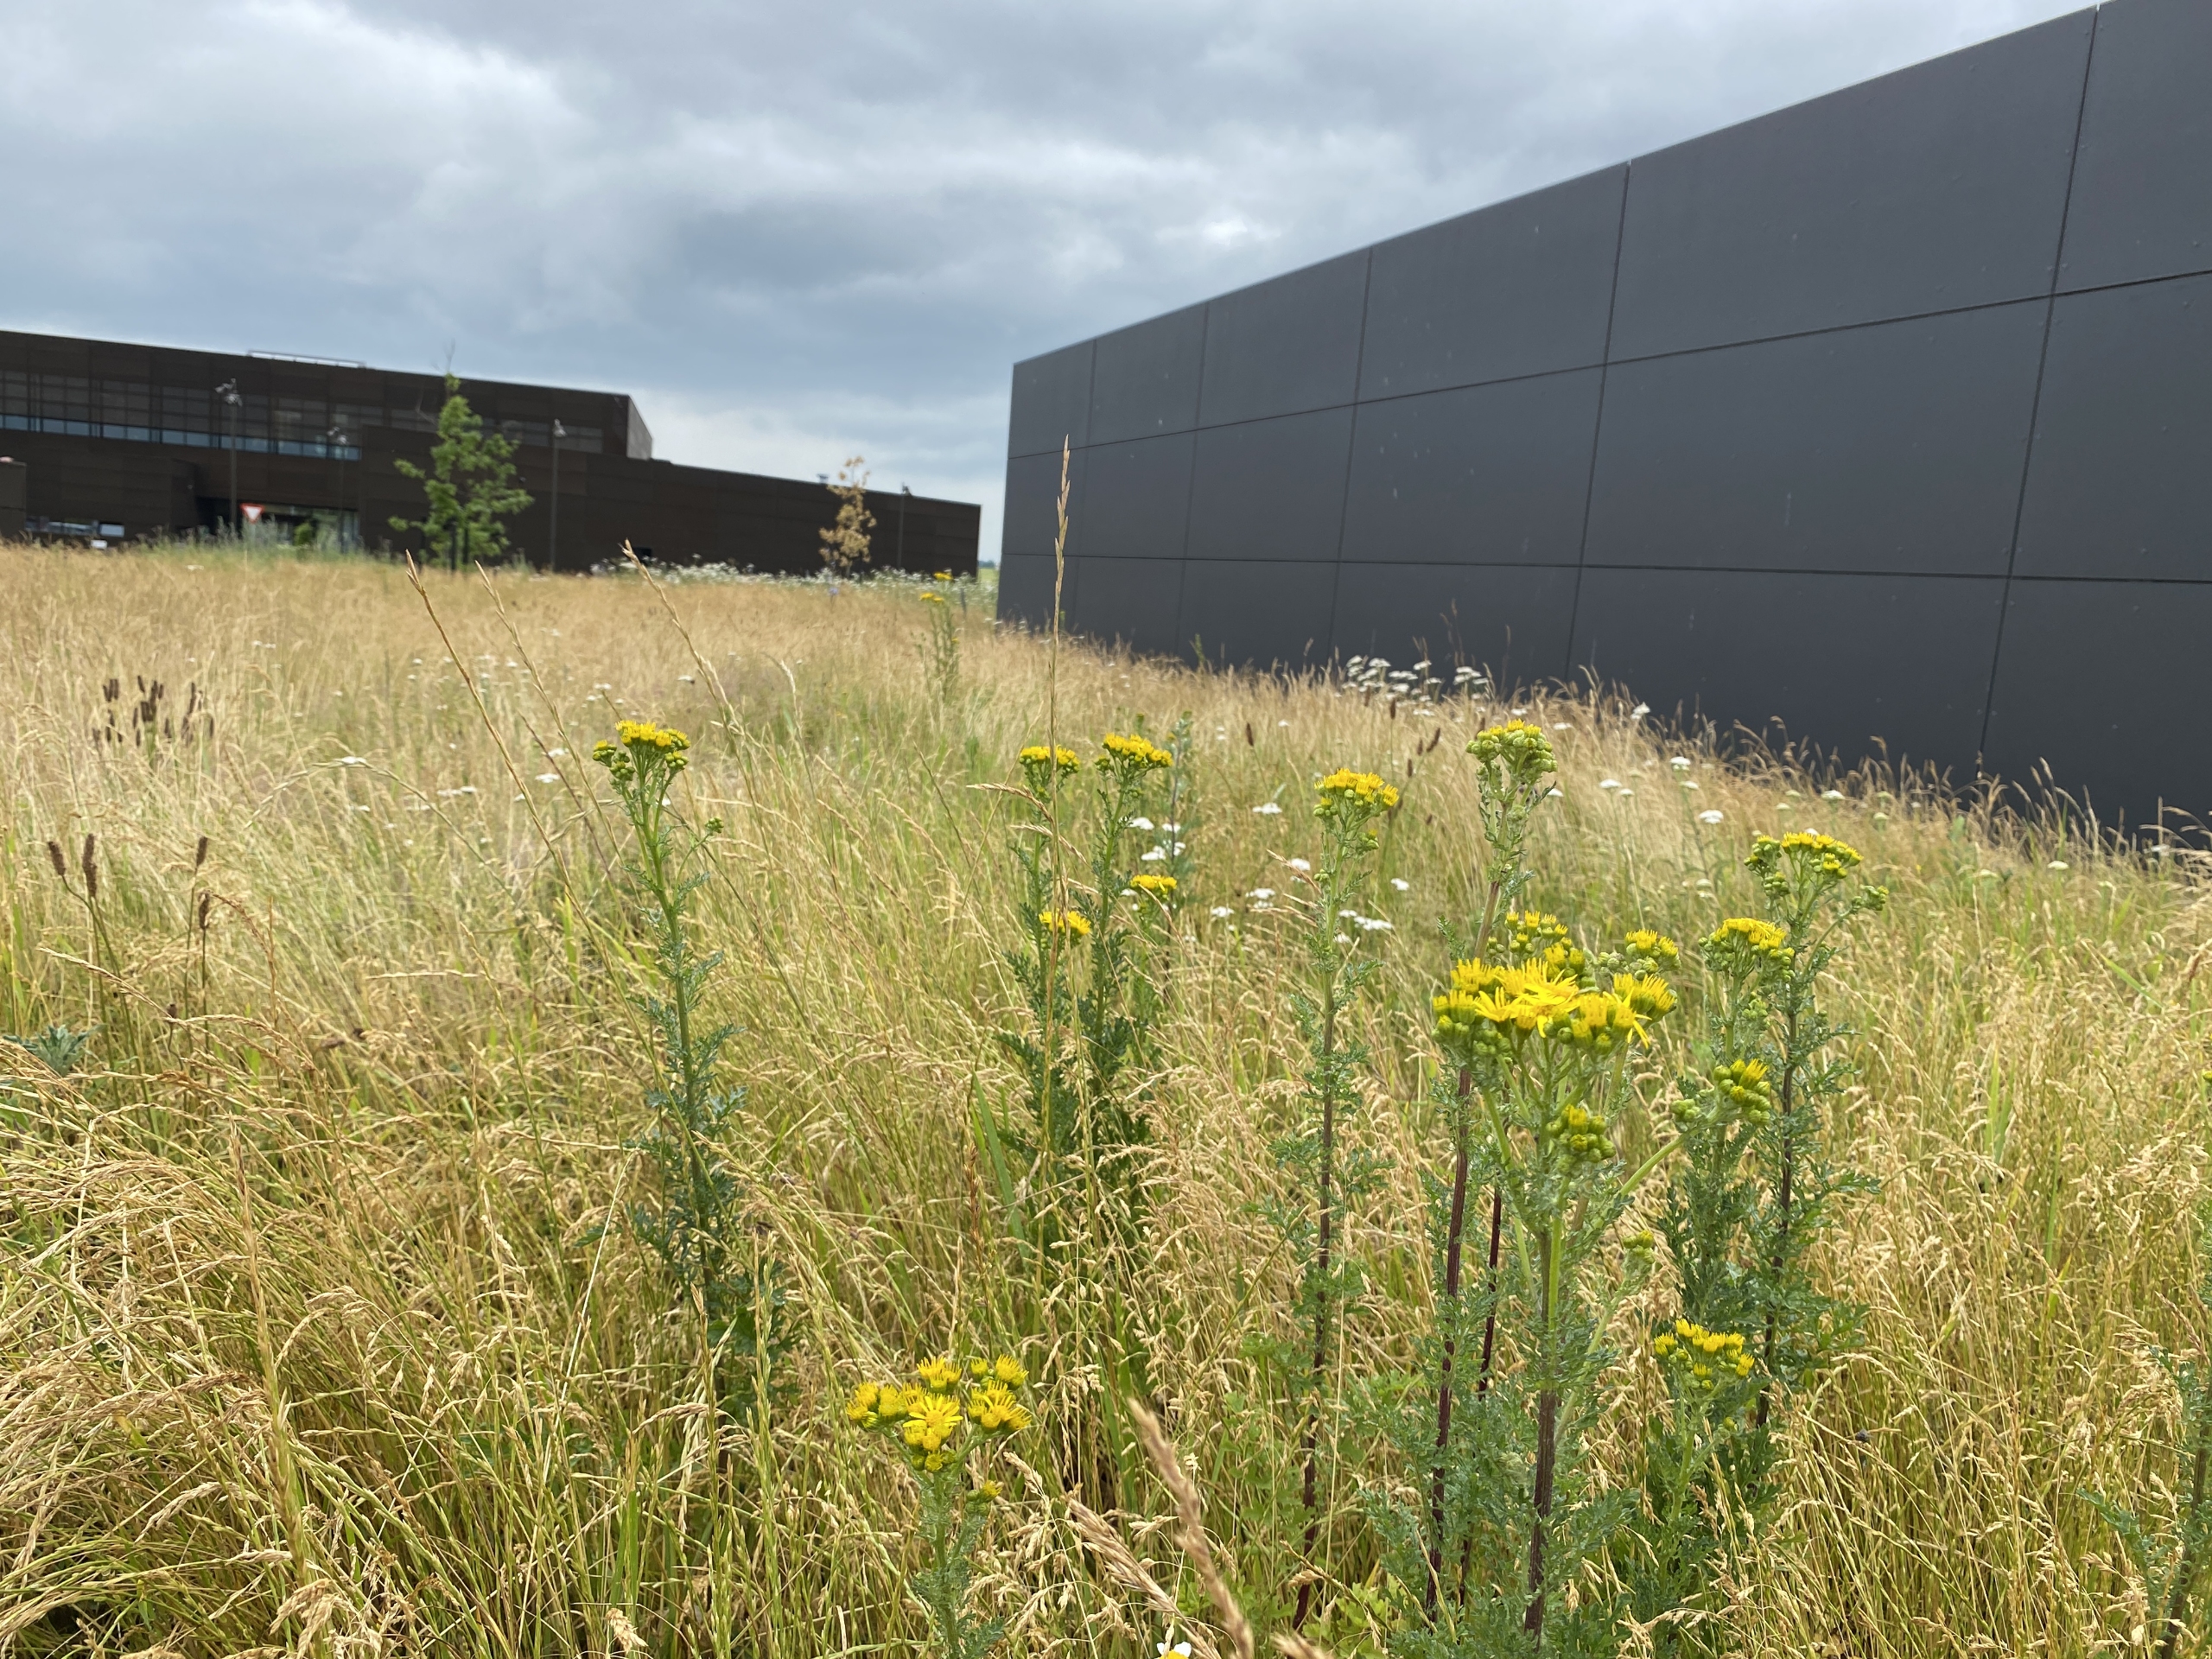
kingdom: Plantae
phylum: Tracheophyta
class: Magnoliopsida
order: Asterales
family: Asteraceae
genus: Jacobaea
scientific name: Jacobaea vulgaris
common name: Eng-brandbæger
